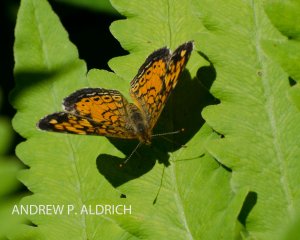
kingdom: Animalia
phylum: Arthropoda
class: Insecta
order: Lepidoptera
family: Nymphalidae
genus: Phyciodes
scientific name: Phyciodes
